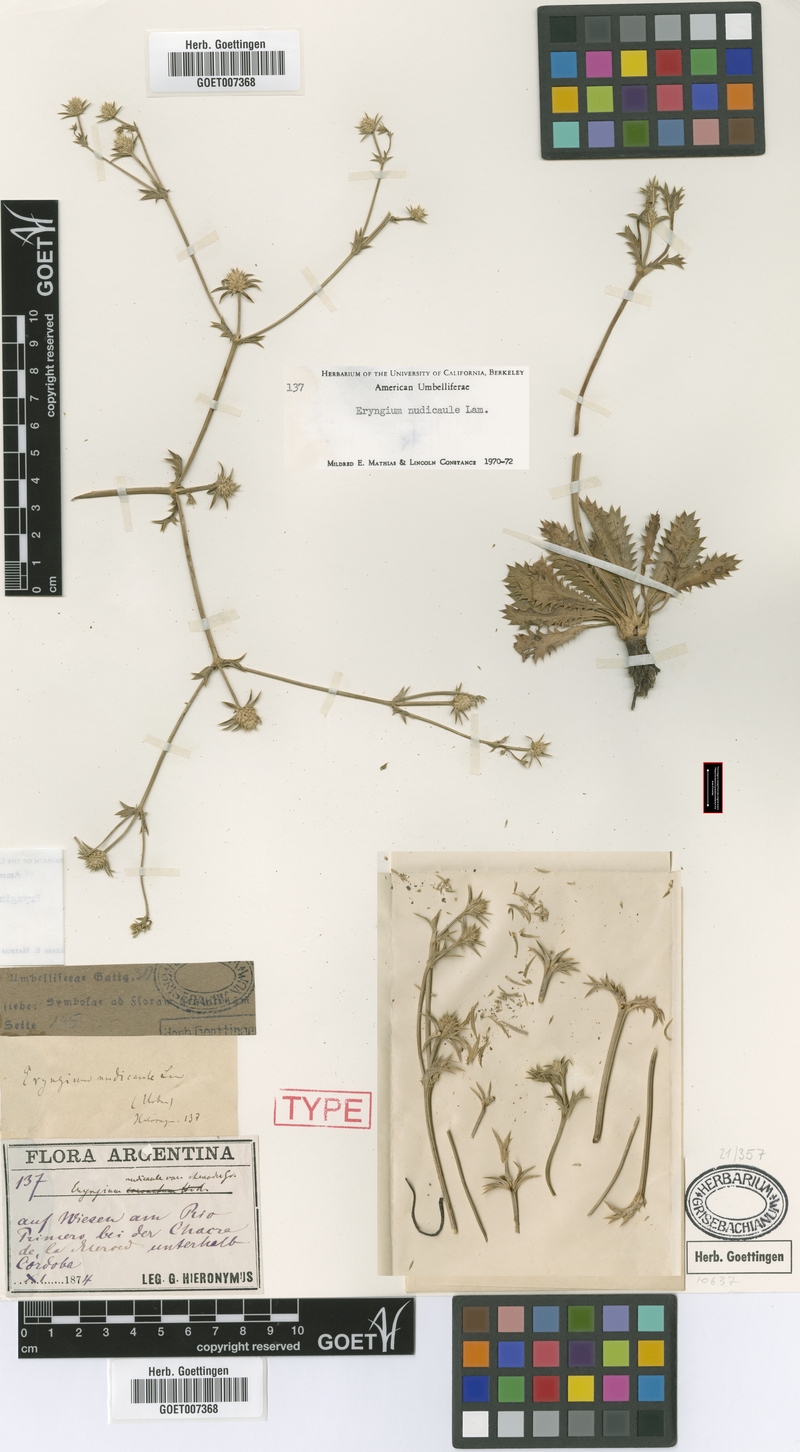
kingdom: Plantae
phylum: Tracheophyta
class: Magnoliopsida
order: Apiales
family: Apiaceae
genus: Eryngium
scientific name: Eryngium nudicaule
